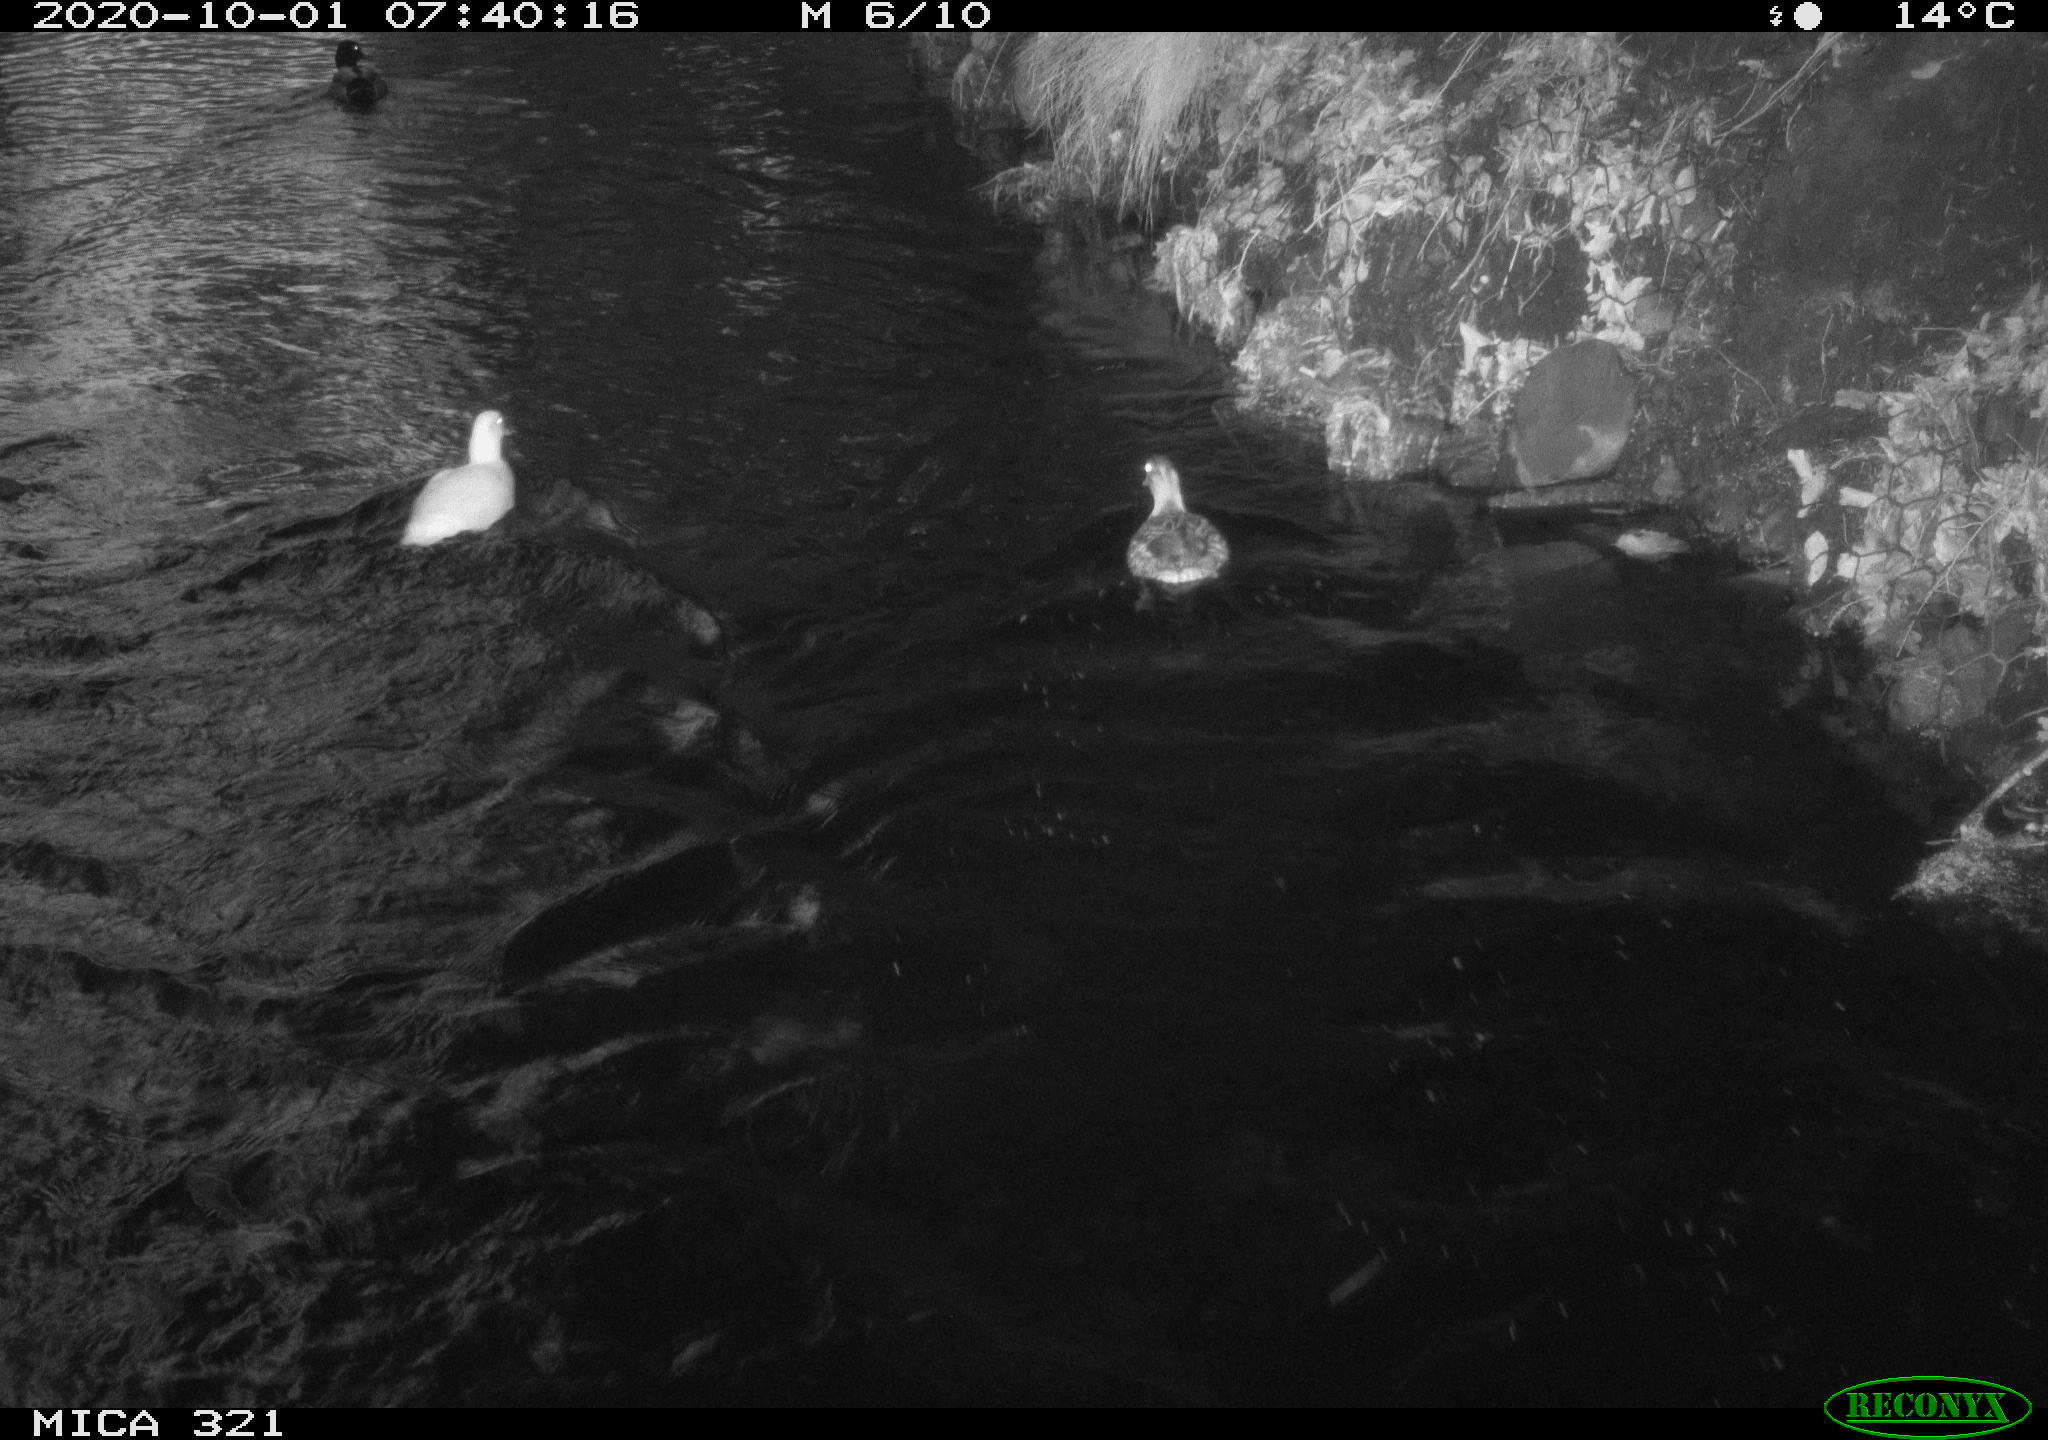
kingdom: Animalia
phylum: Chordata
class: Aves
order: Anseriformes
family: Anatidae
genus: Anas
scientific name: Anas platyrhynchos
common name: Mallard
